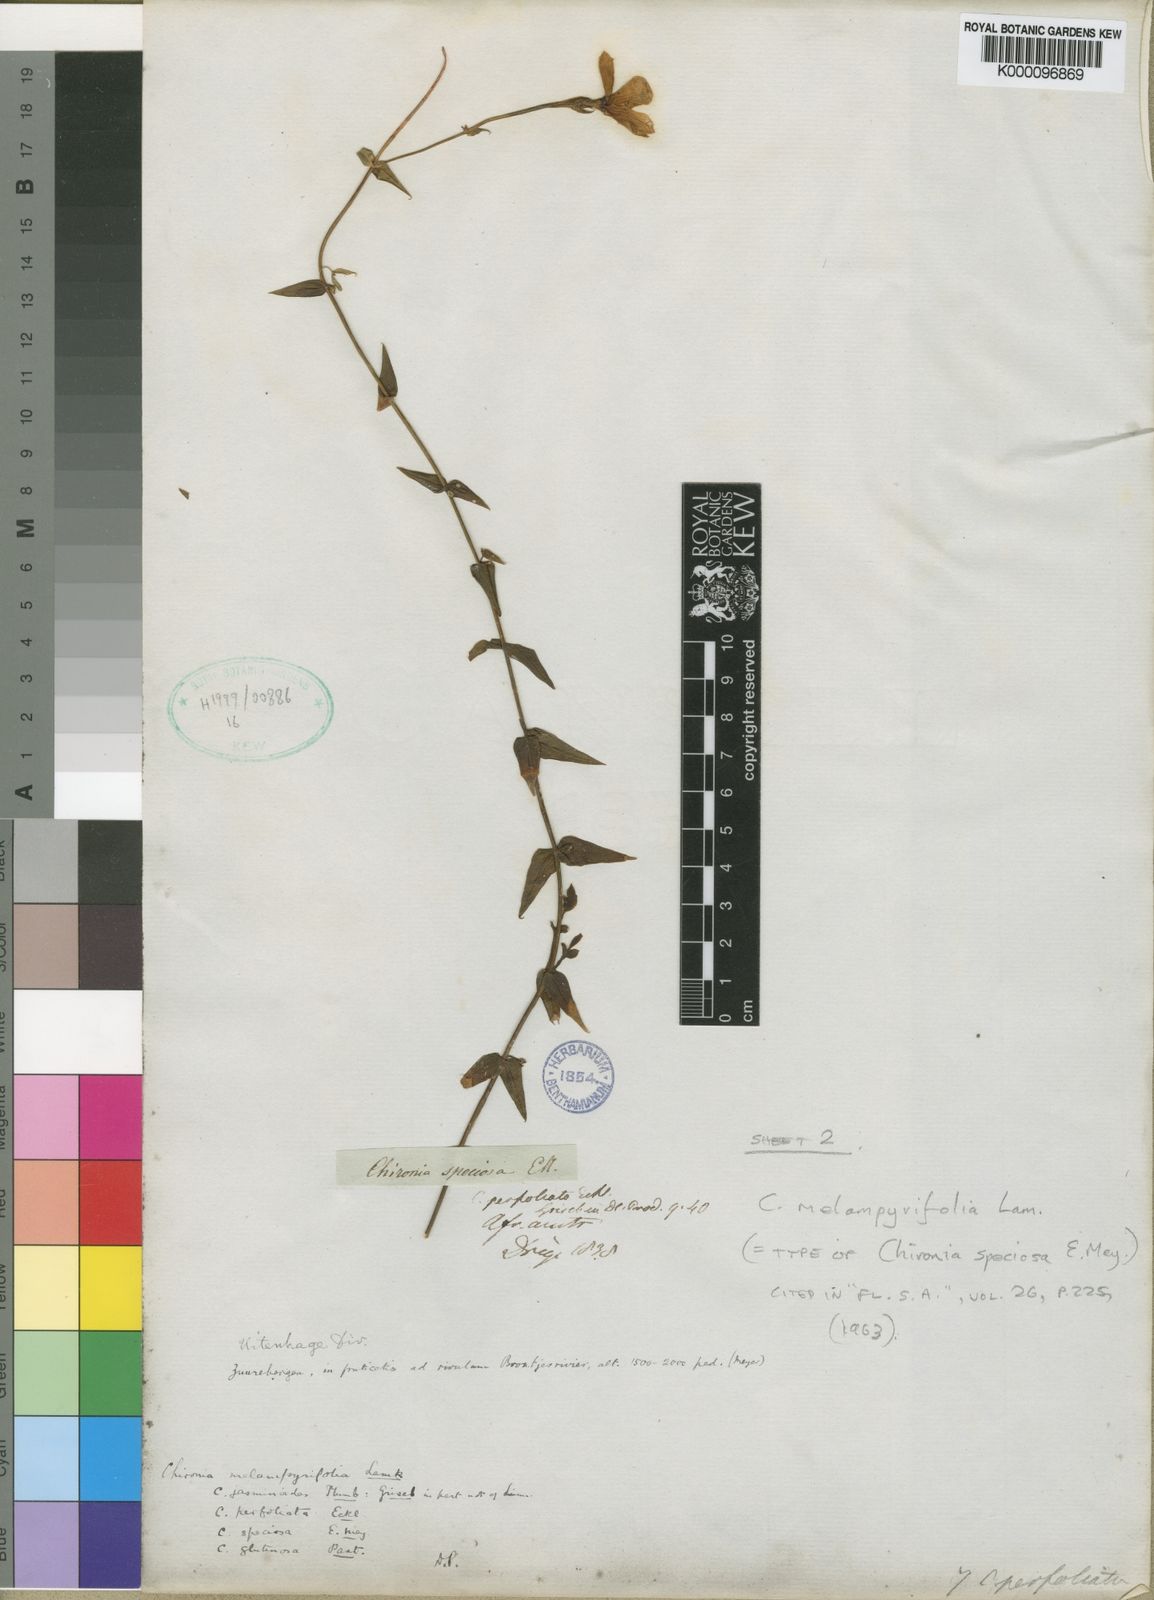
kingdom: Plantae
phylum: Tracheophyta
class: Magnoliopsida
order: Gentianales
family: Gentianaceae
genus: Chironia
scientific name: Chironia melampyrifolia
